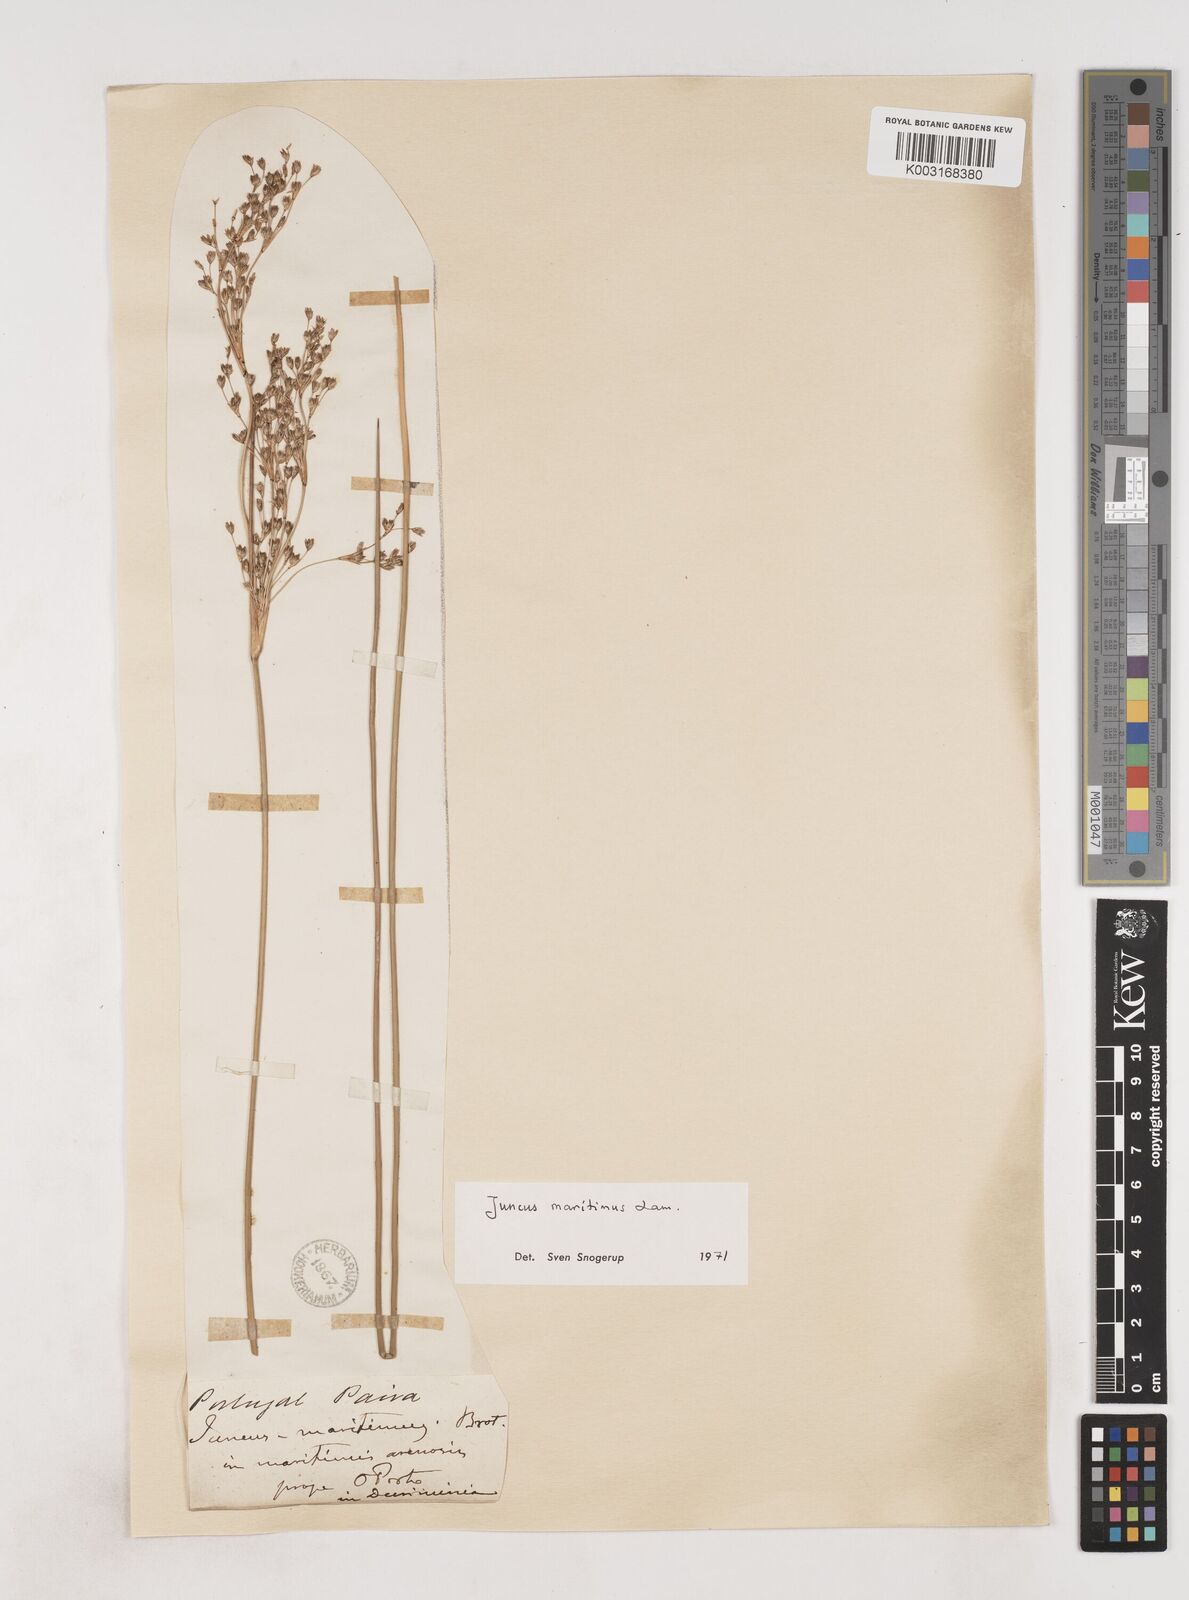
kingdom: Plantae
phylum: Tracheophyta
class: Liliopsida
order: Poales
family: Juncaceae
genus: Luzula
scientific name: Luzula sylvatica
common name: Great wood-rush
